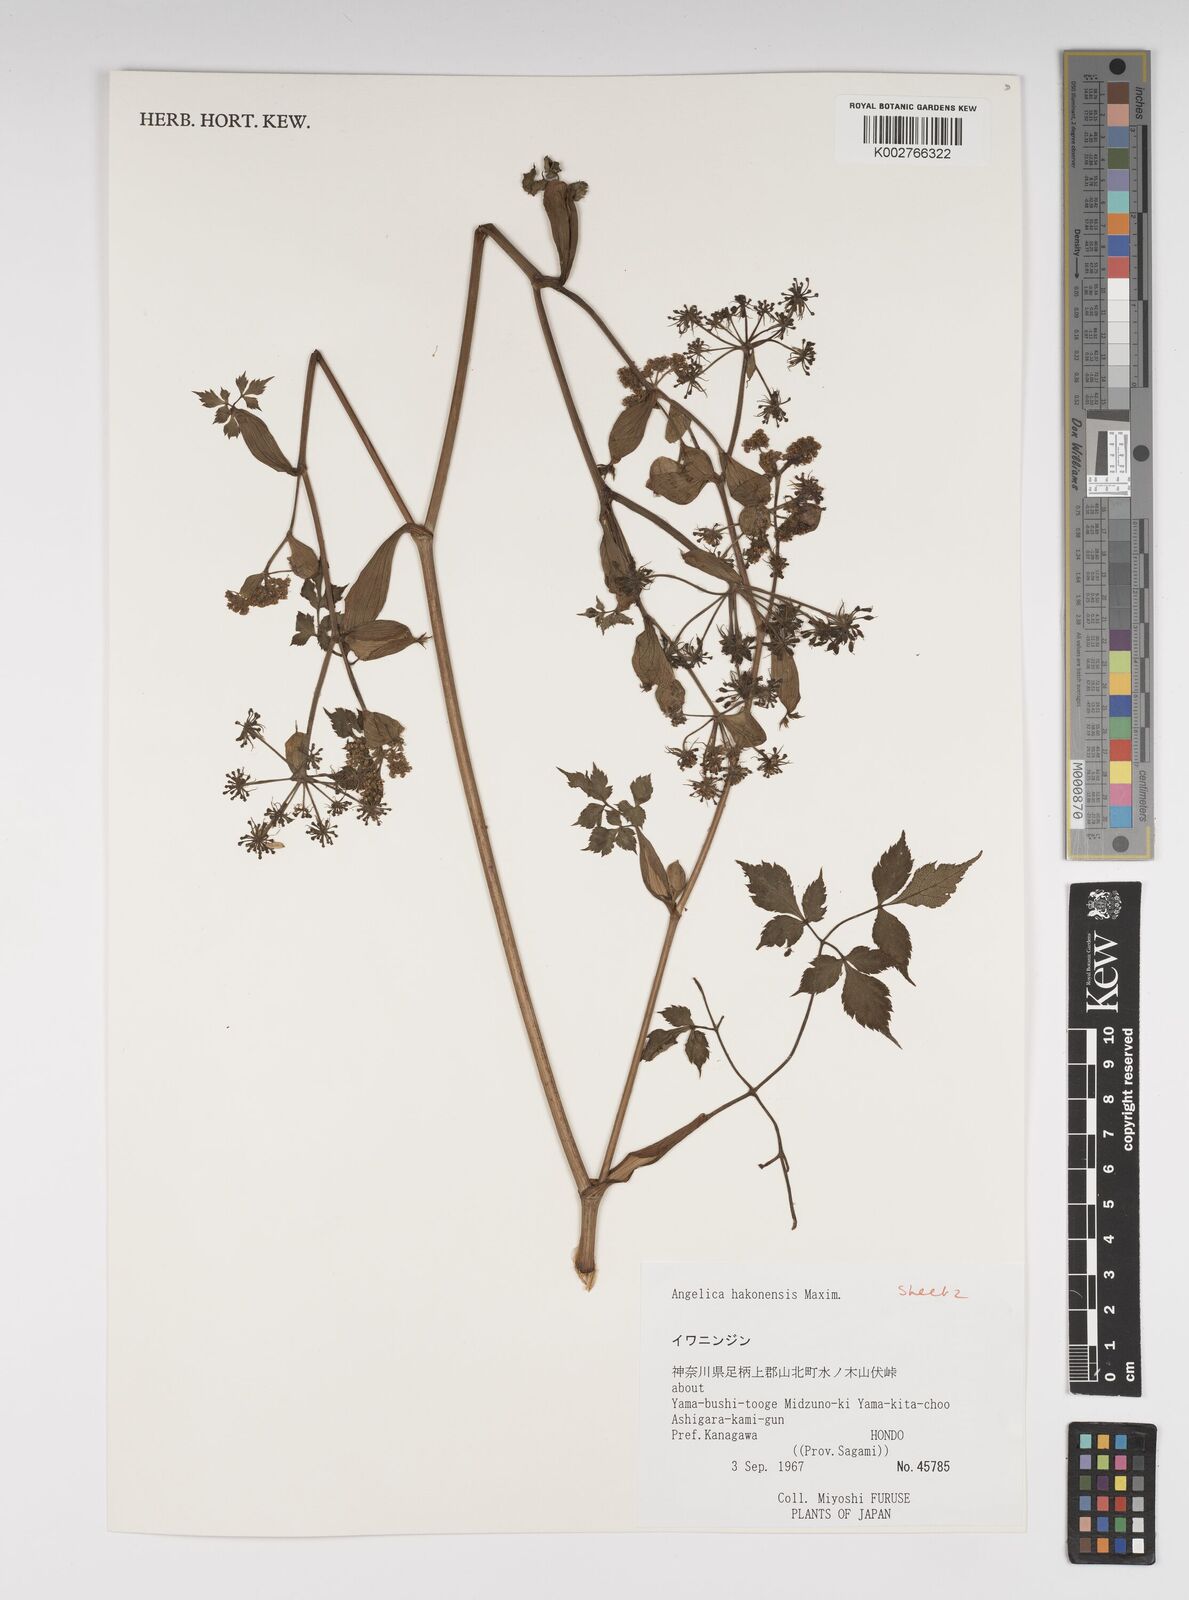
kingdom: Plantae
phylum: Tracheophyta
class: Magnoliopsida
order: Apiales
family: Apiaceae
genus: Angelica
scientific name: Angelica hakonensis
